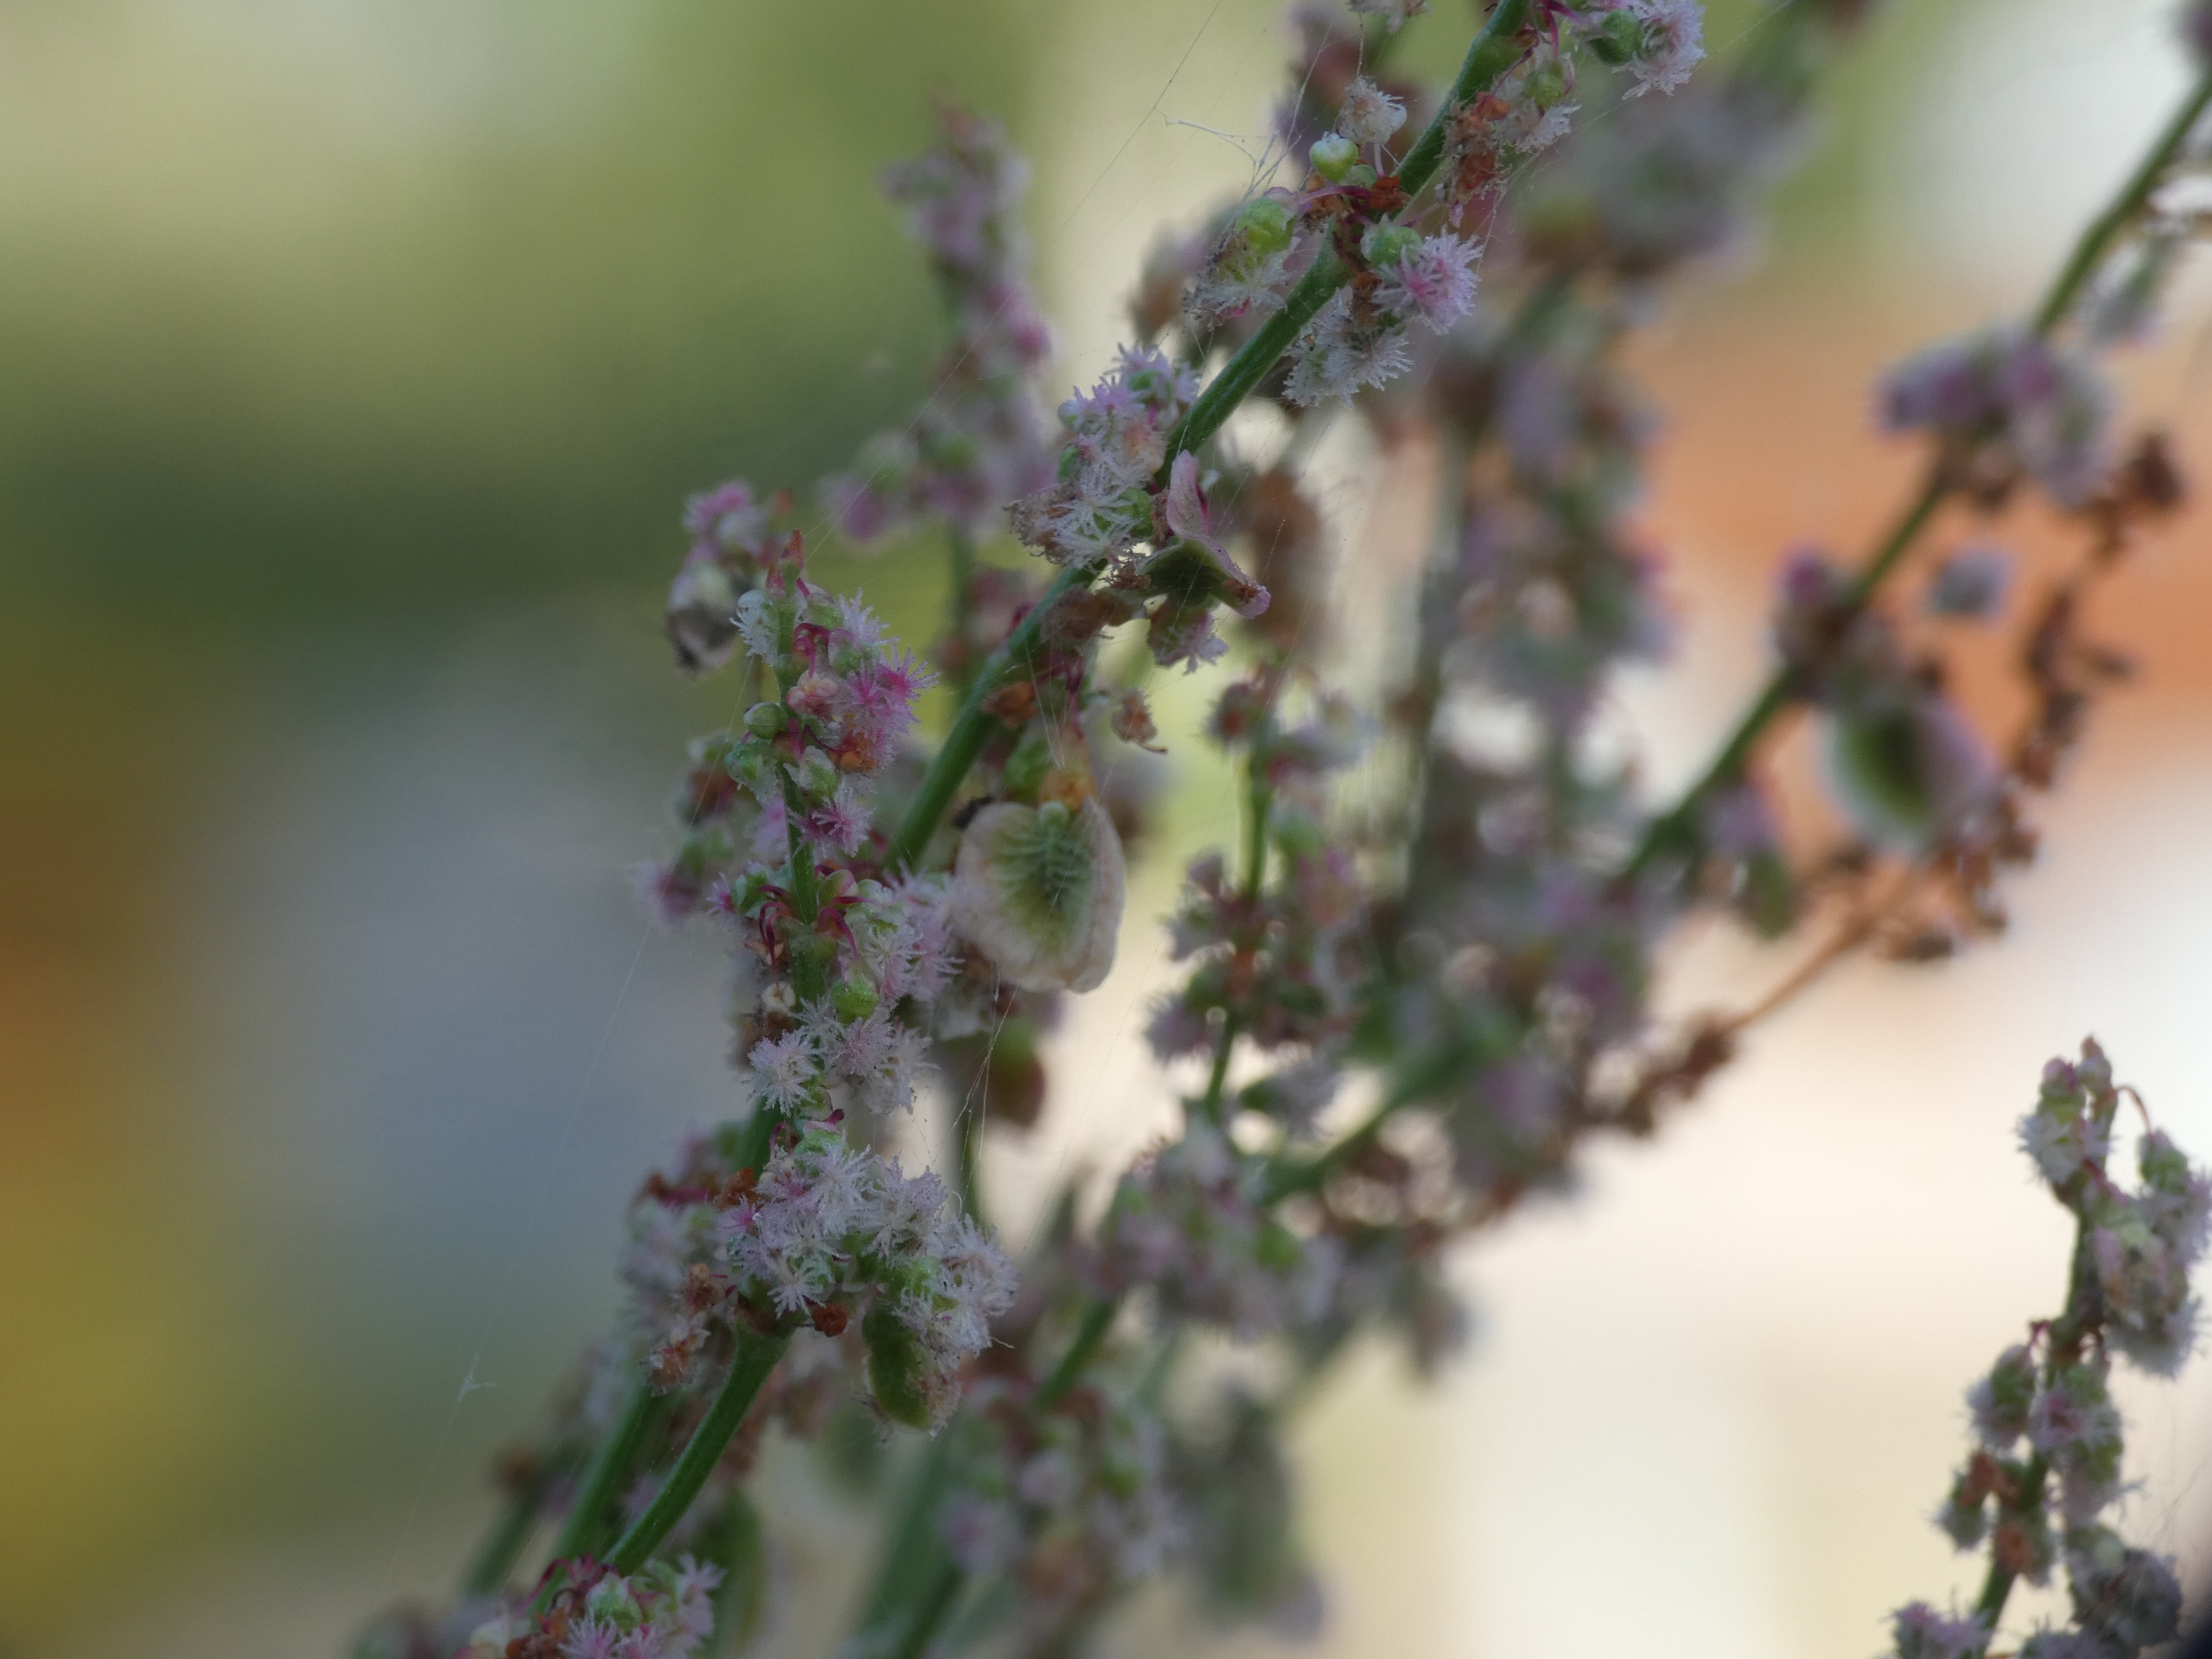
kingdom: Plantae
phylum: Tracheophyta
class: Magnoliopsida
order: Caryophyllales
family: Polygonaceae
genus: Rumex
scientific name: Rumex acetosa
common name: Almindelig syre
